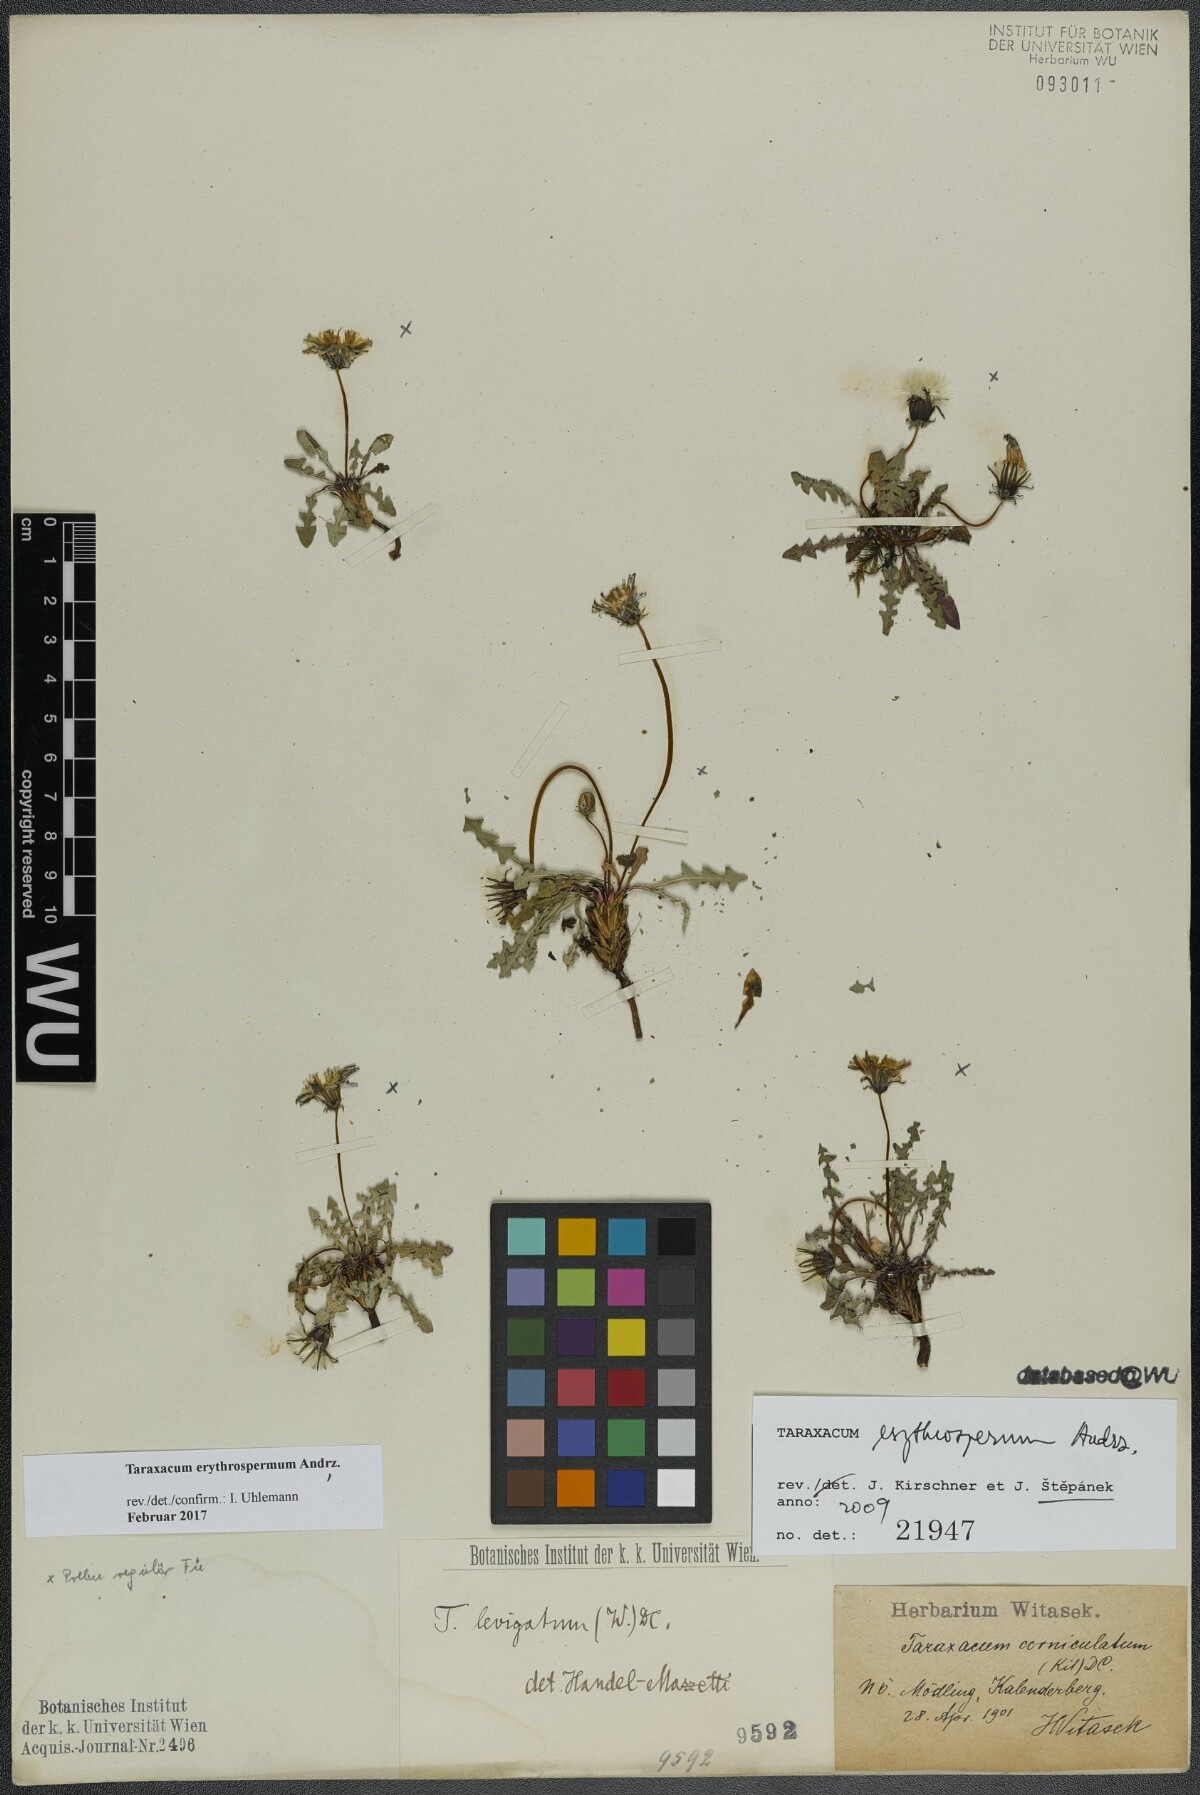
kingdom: Plantae
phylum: Tracheophyta
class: Magnoliopsida
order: Asterales
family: Asteraceae
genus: Taraxacum
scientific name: Taraxacum erythrospermum
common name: Rock dandelion
